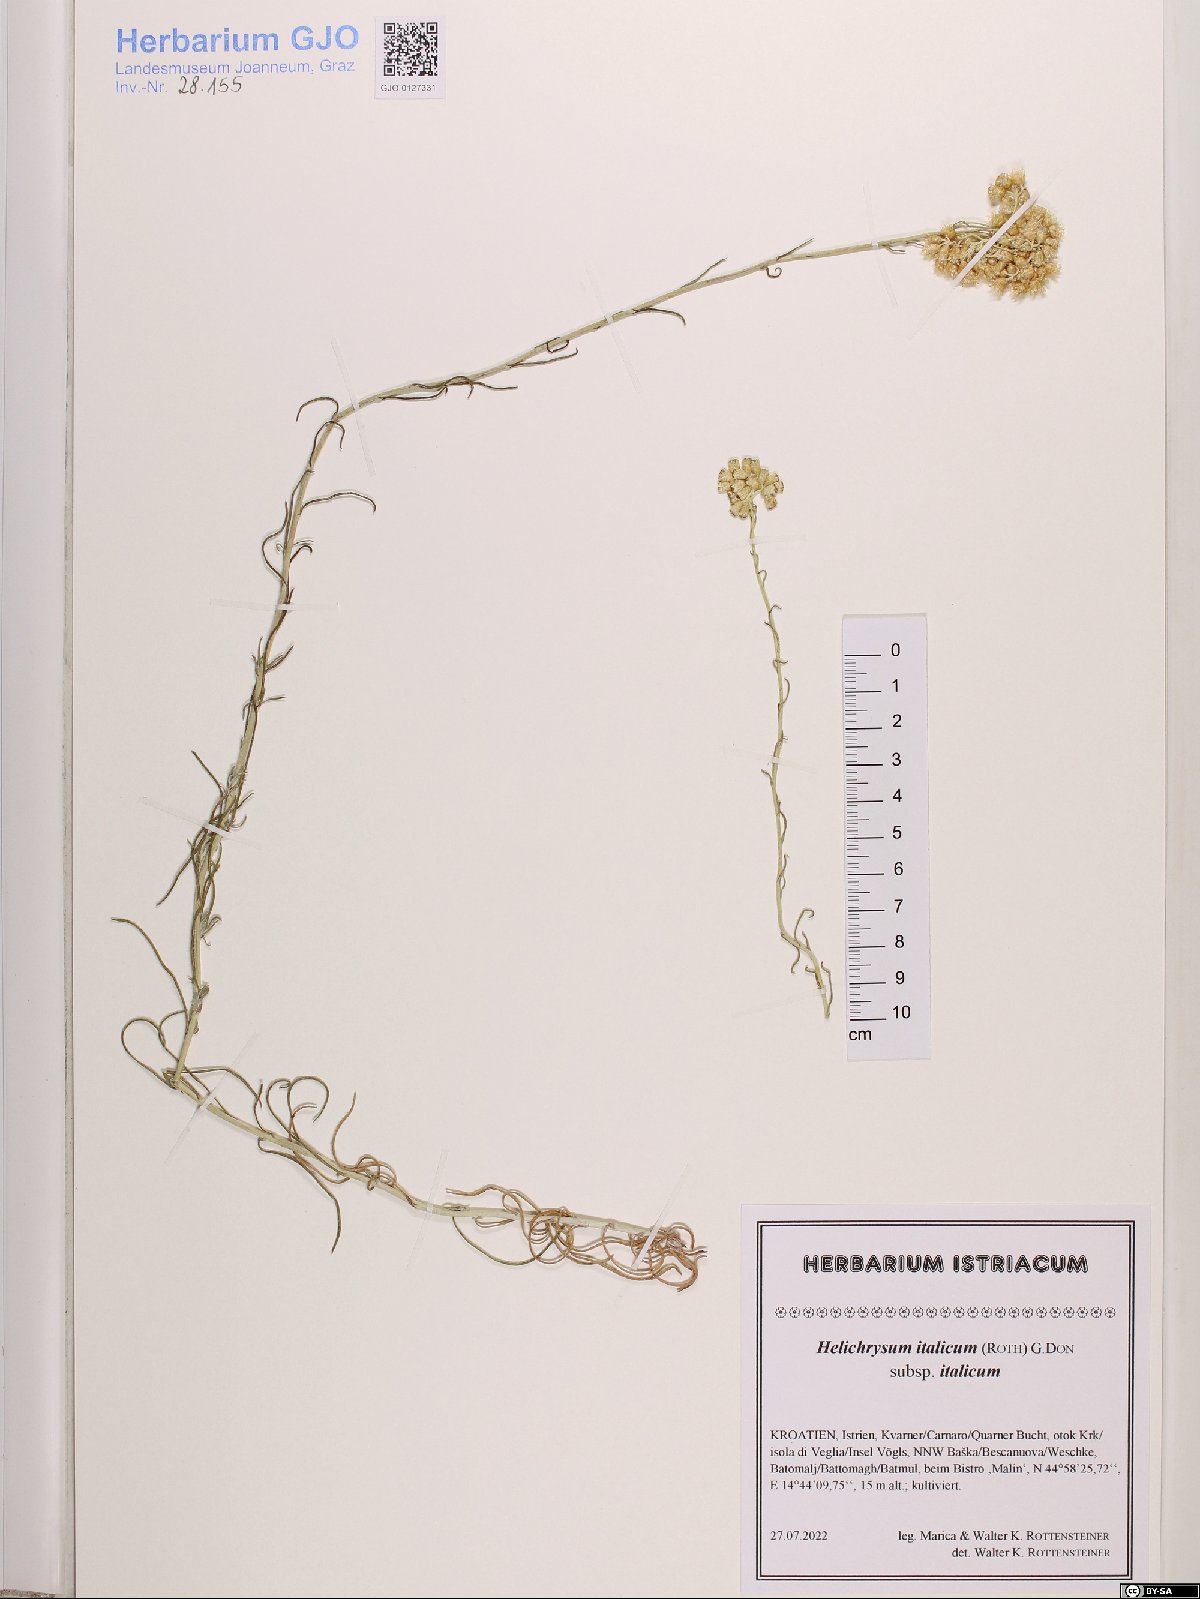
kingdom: Plantae
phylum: Tracheophyta
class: Magnoliopsida
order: Asterales
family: Asteraceae
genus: Helichrysum
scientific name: Helichrysum italicum
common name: Curryplant
